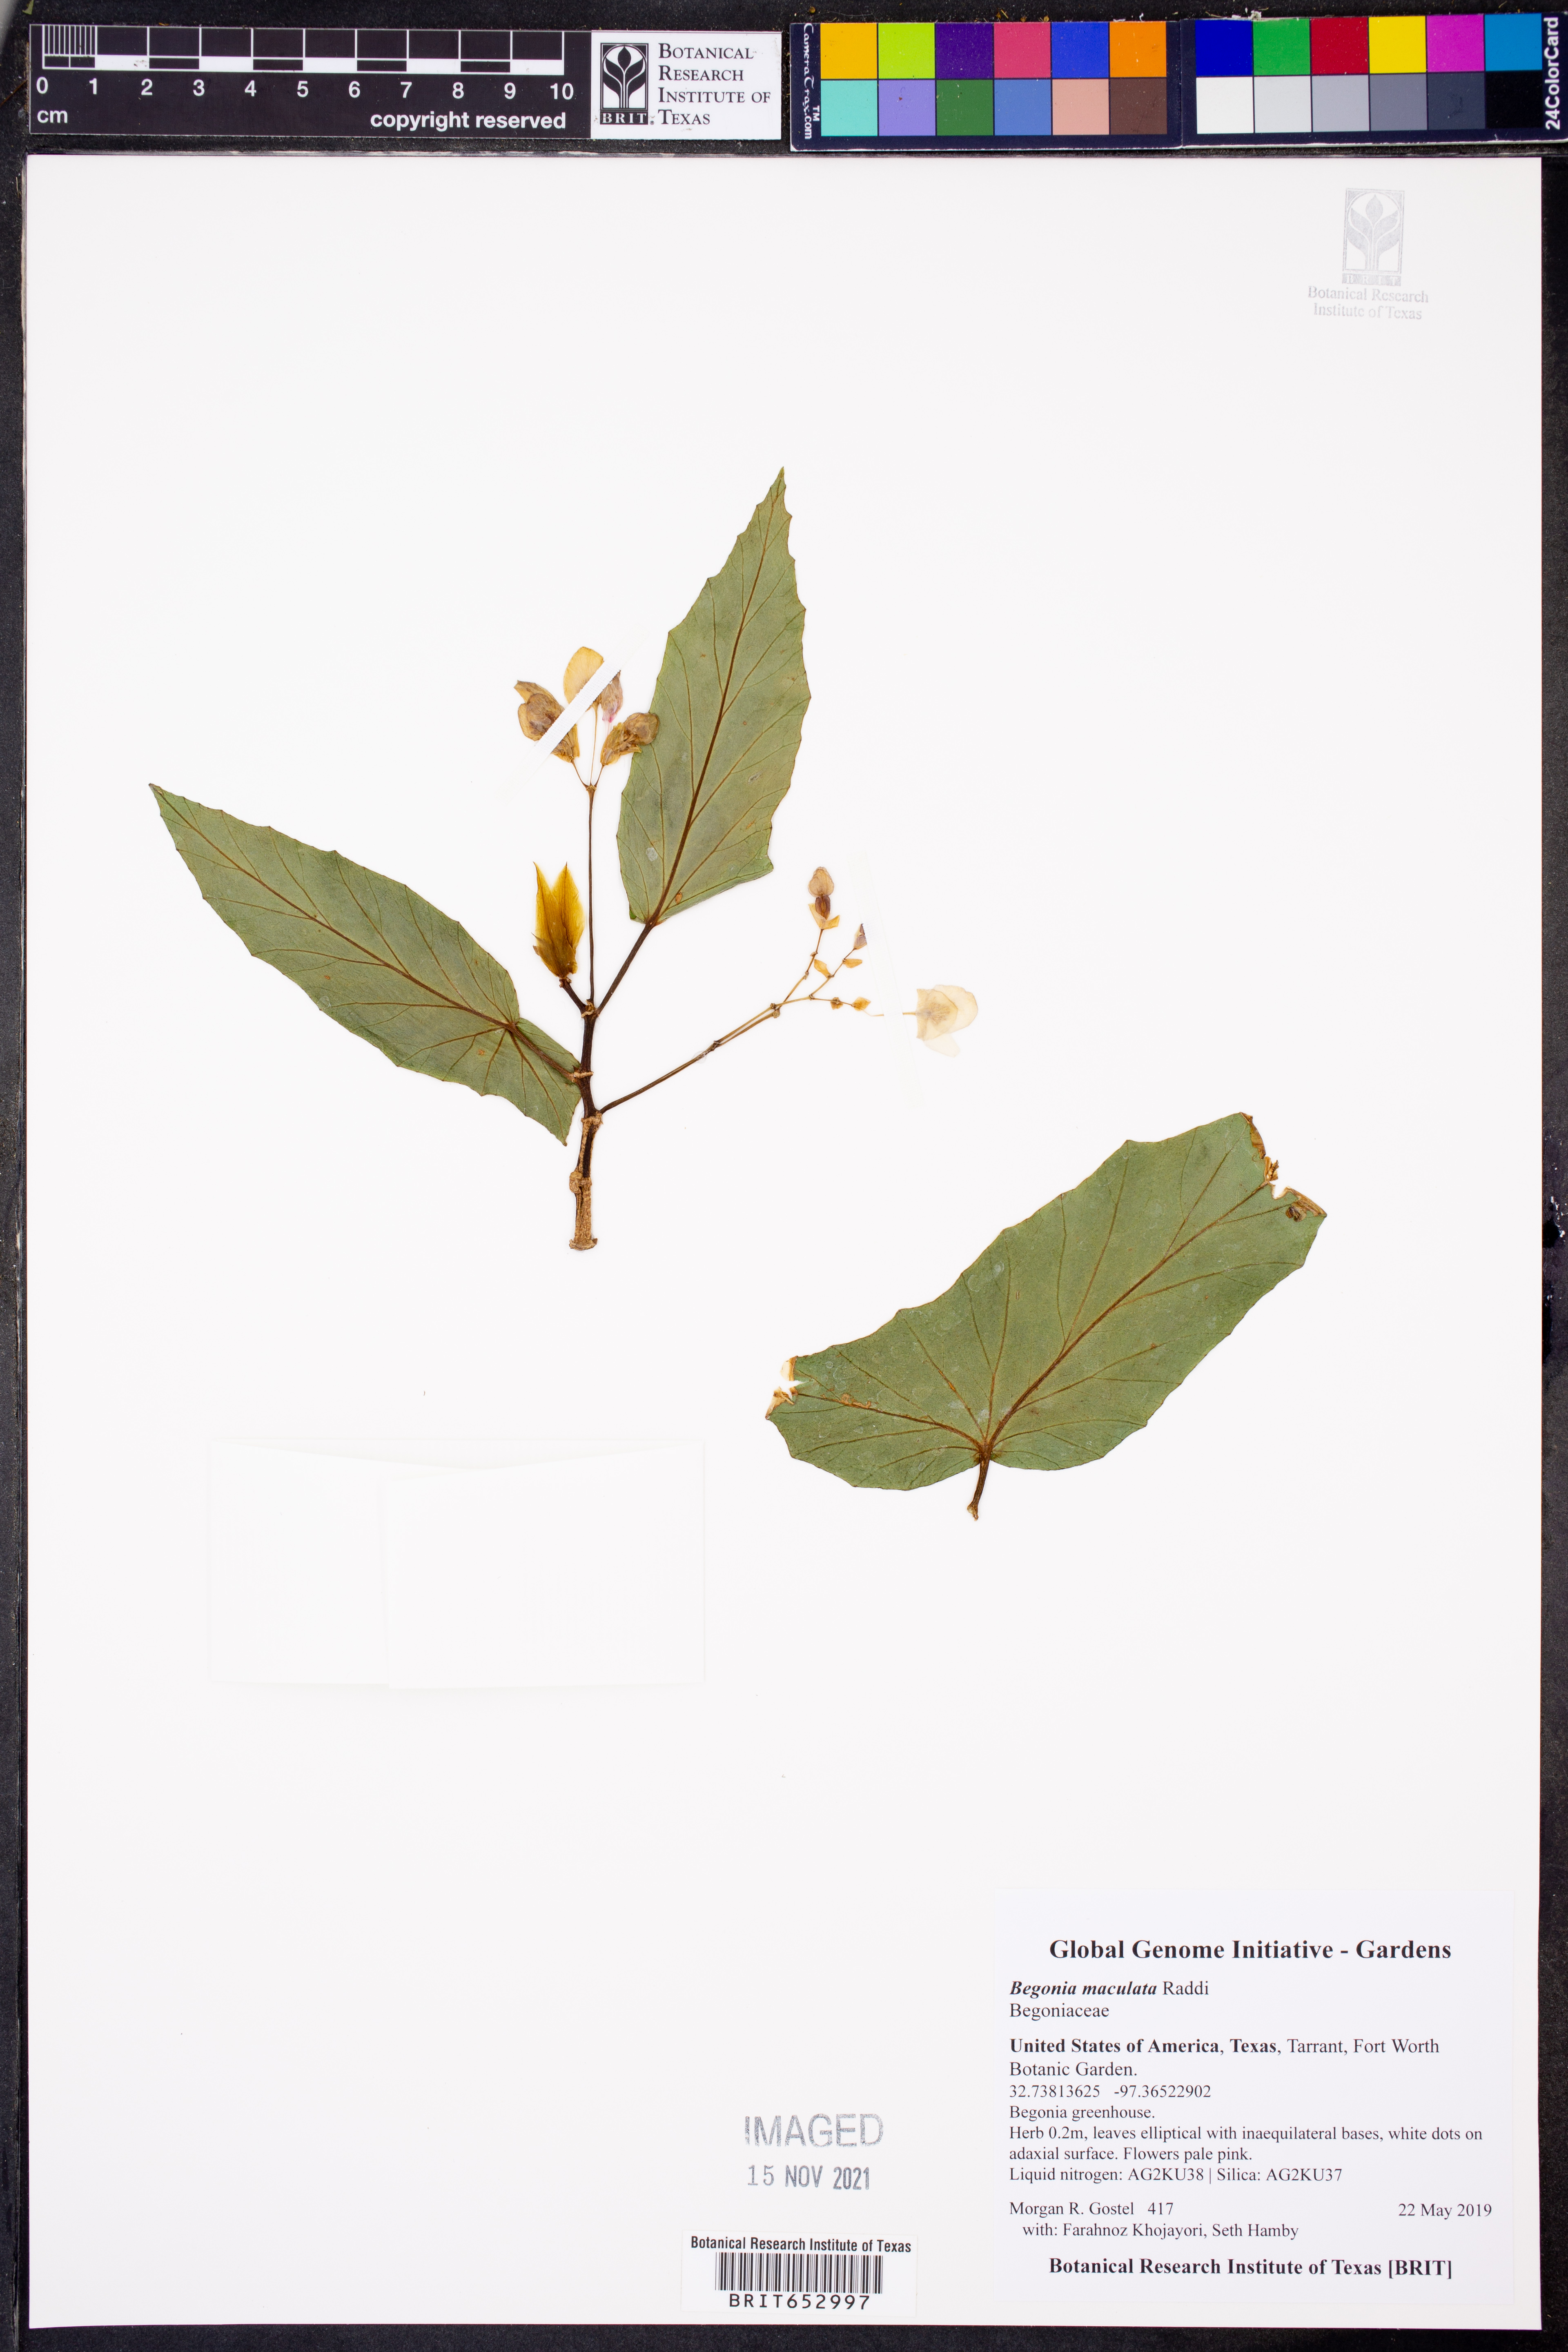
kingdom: Plantae
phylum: Tracheophyta
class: Magnoliopsida
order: Cucurbitales
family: Begoniaceae
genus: Begonia
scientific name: Begonia maculata
